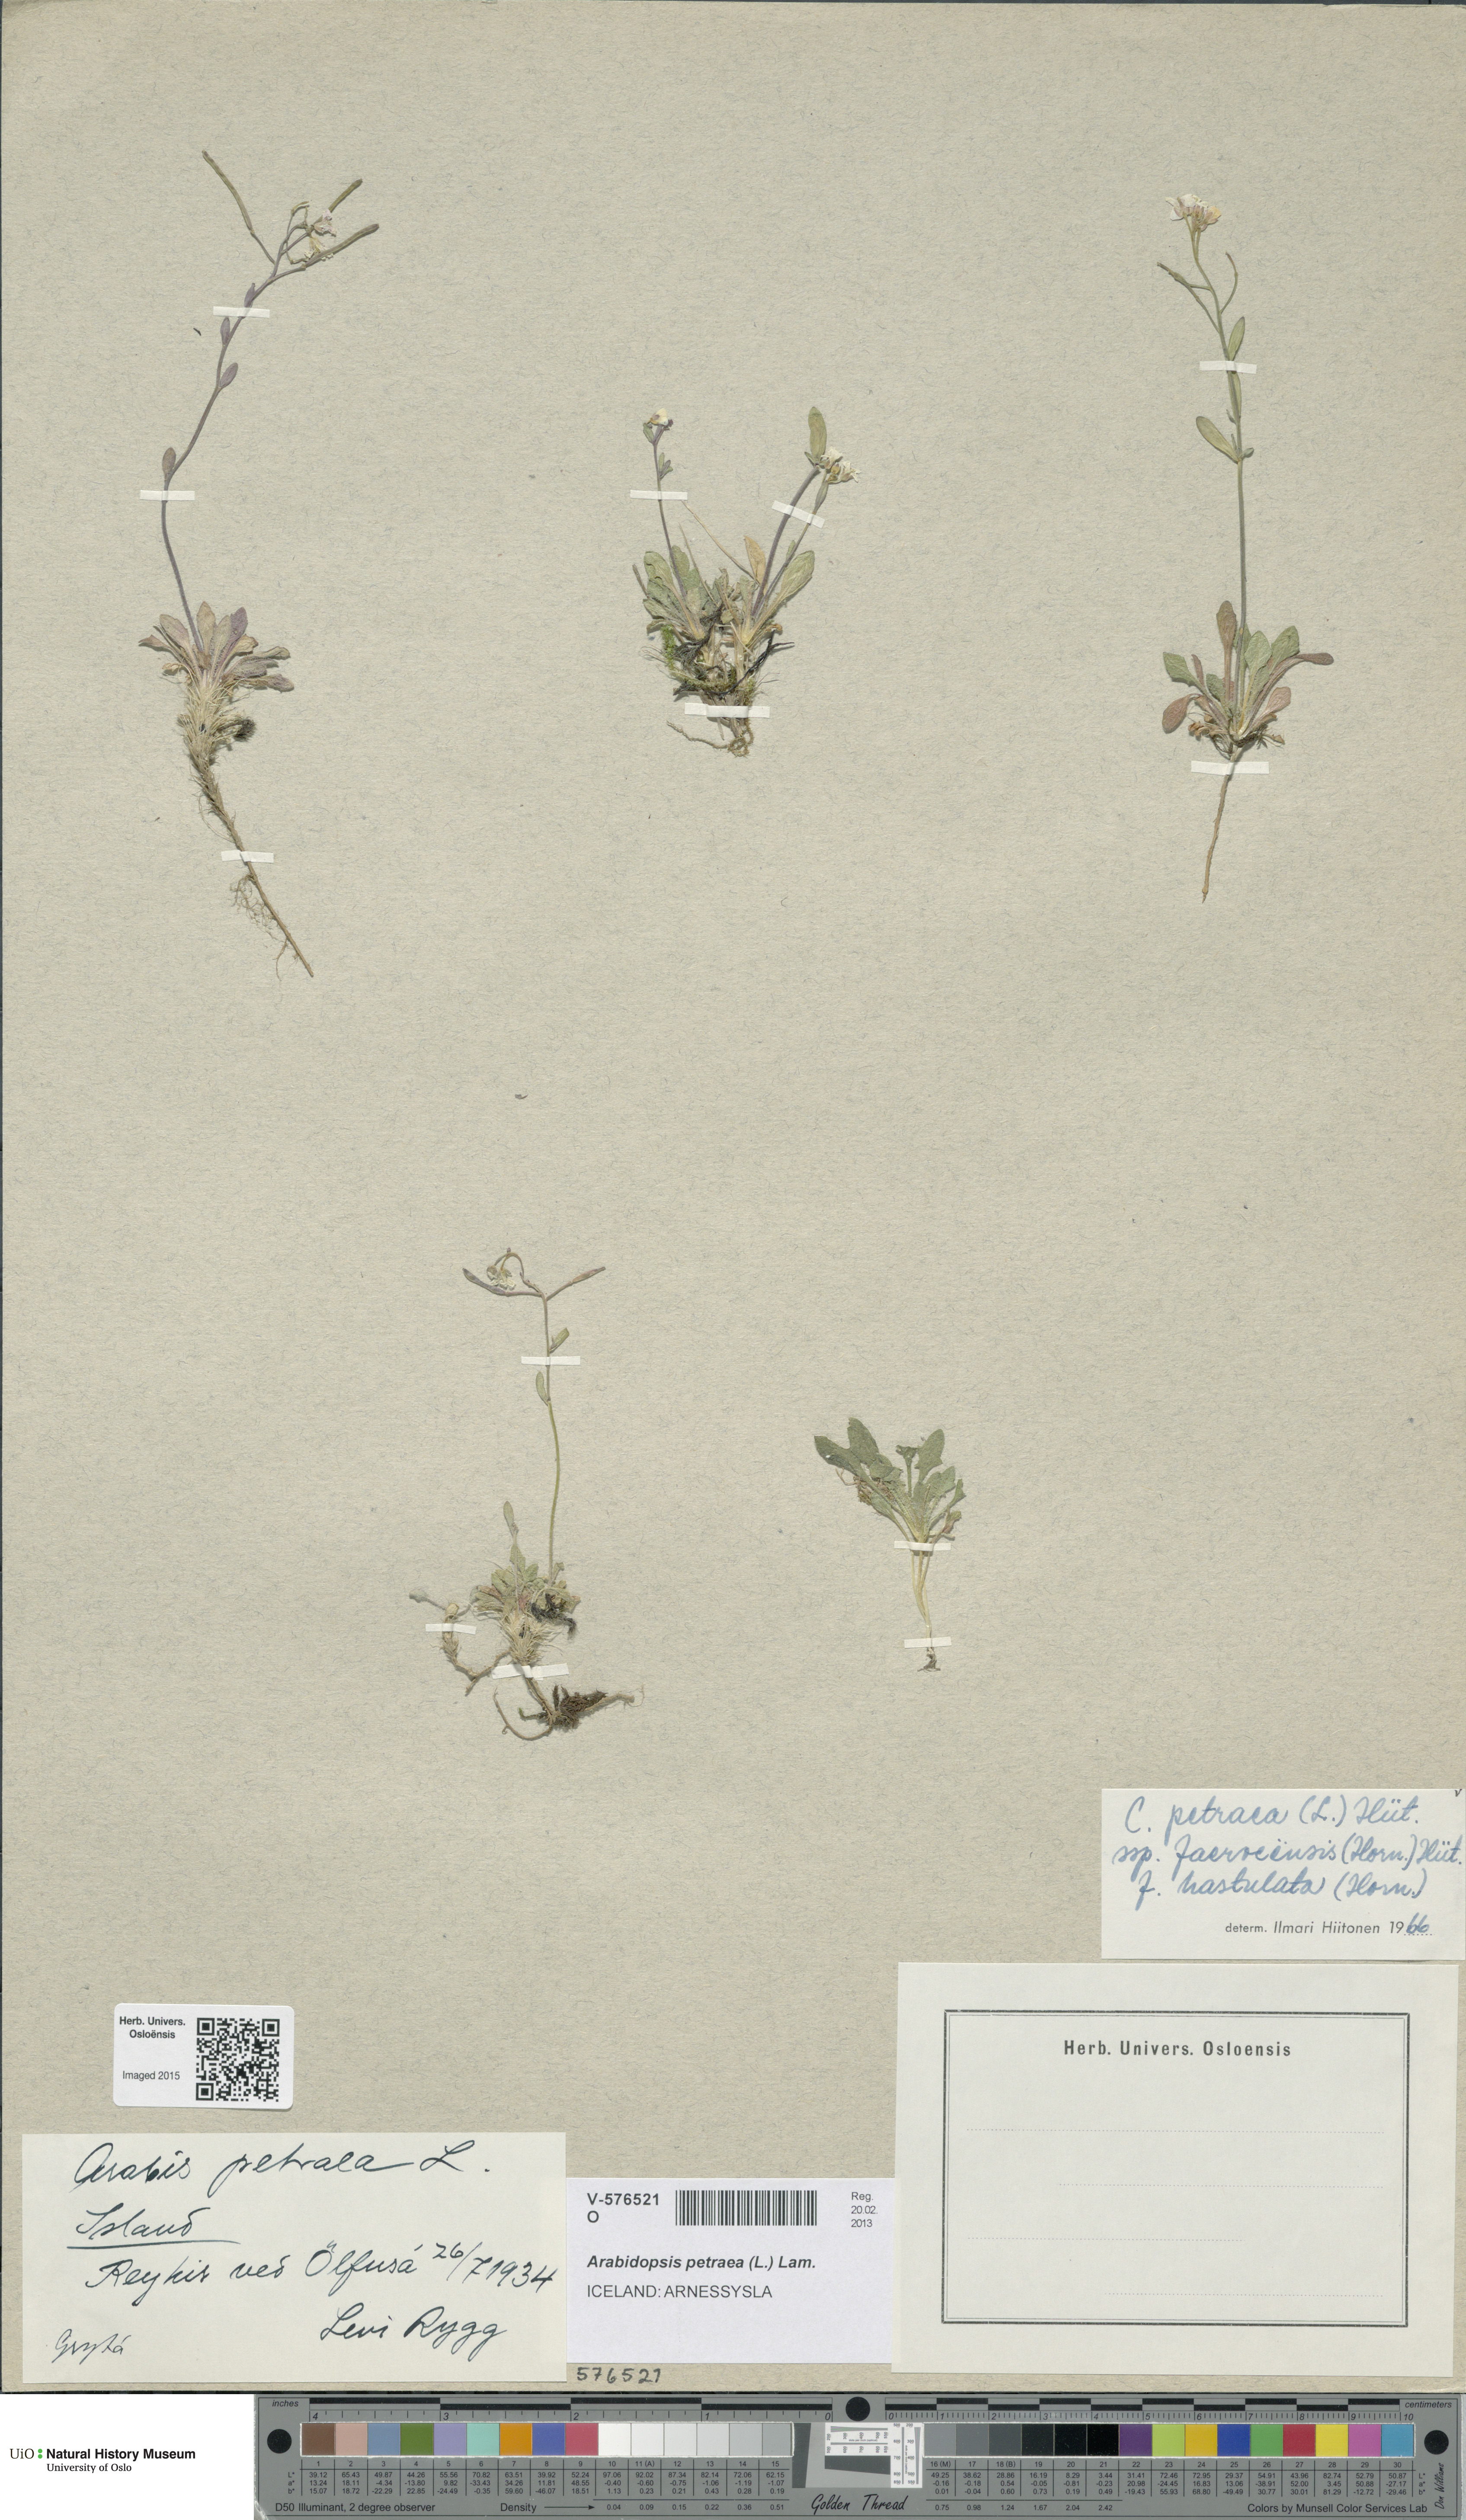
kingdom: Plantae
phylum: Tracheophyta
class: Magnoliopsida
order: Brassicales
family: Brassicaceae
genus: Arabidopsis
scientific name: Arabidopsis petraea
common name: Northern rock-cress
